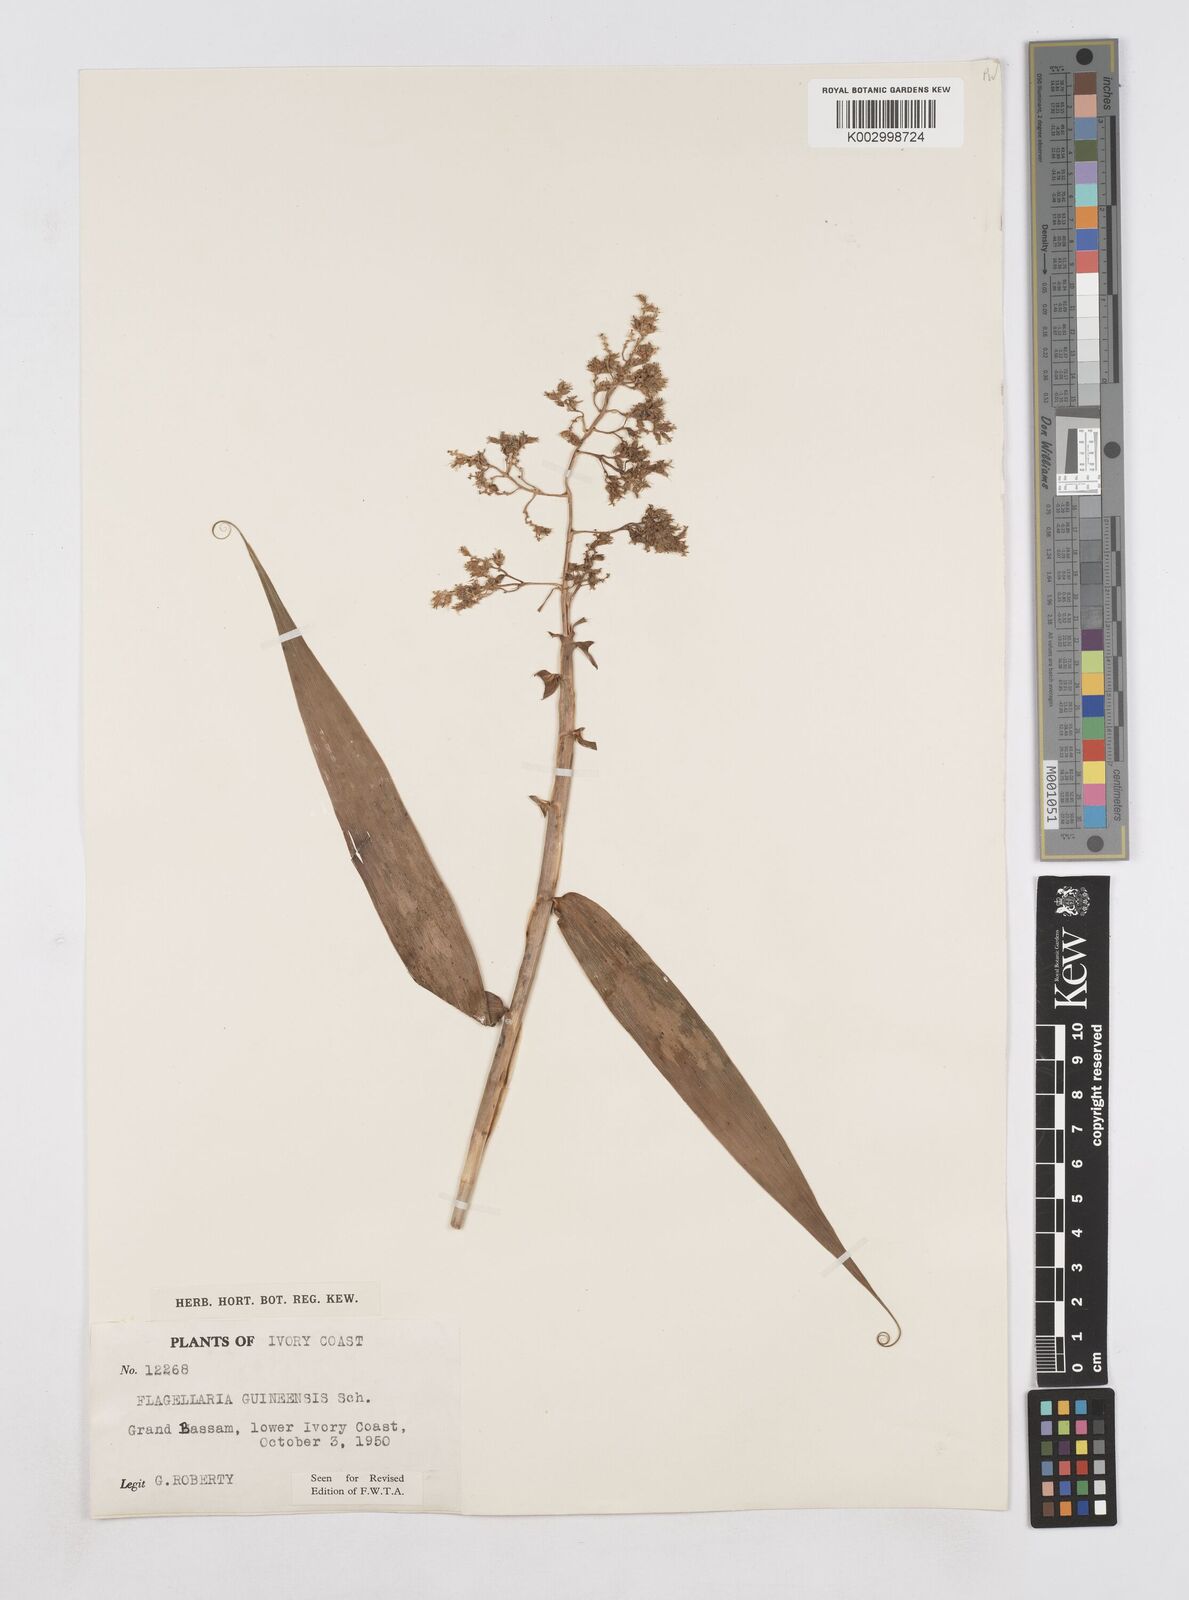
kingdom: Plantae
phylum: Tracheophyta
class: Liliopsida
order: Poales
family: Flagellariaceae
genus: Flagellaria
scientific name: Flagellaria guineensis
